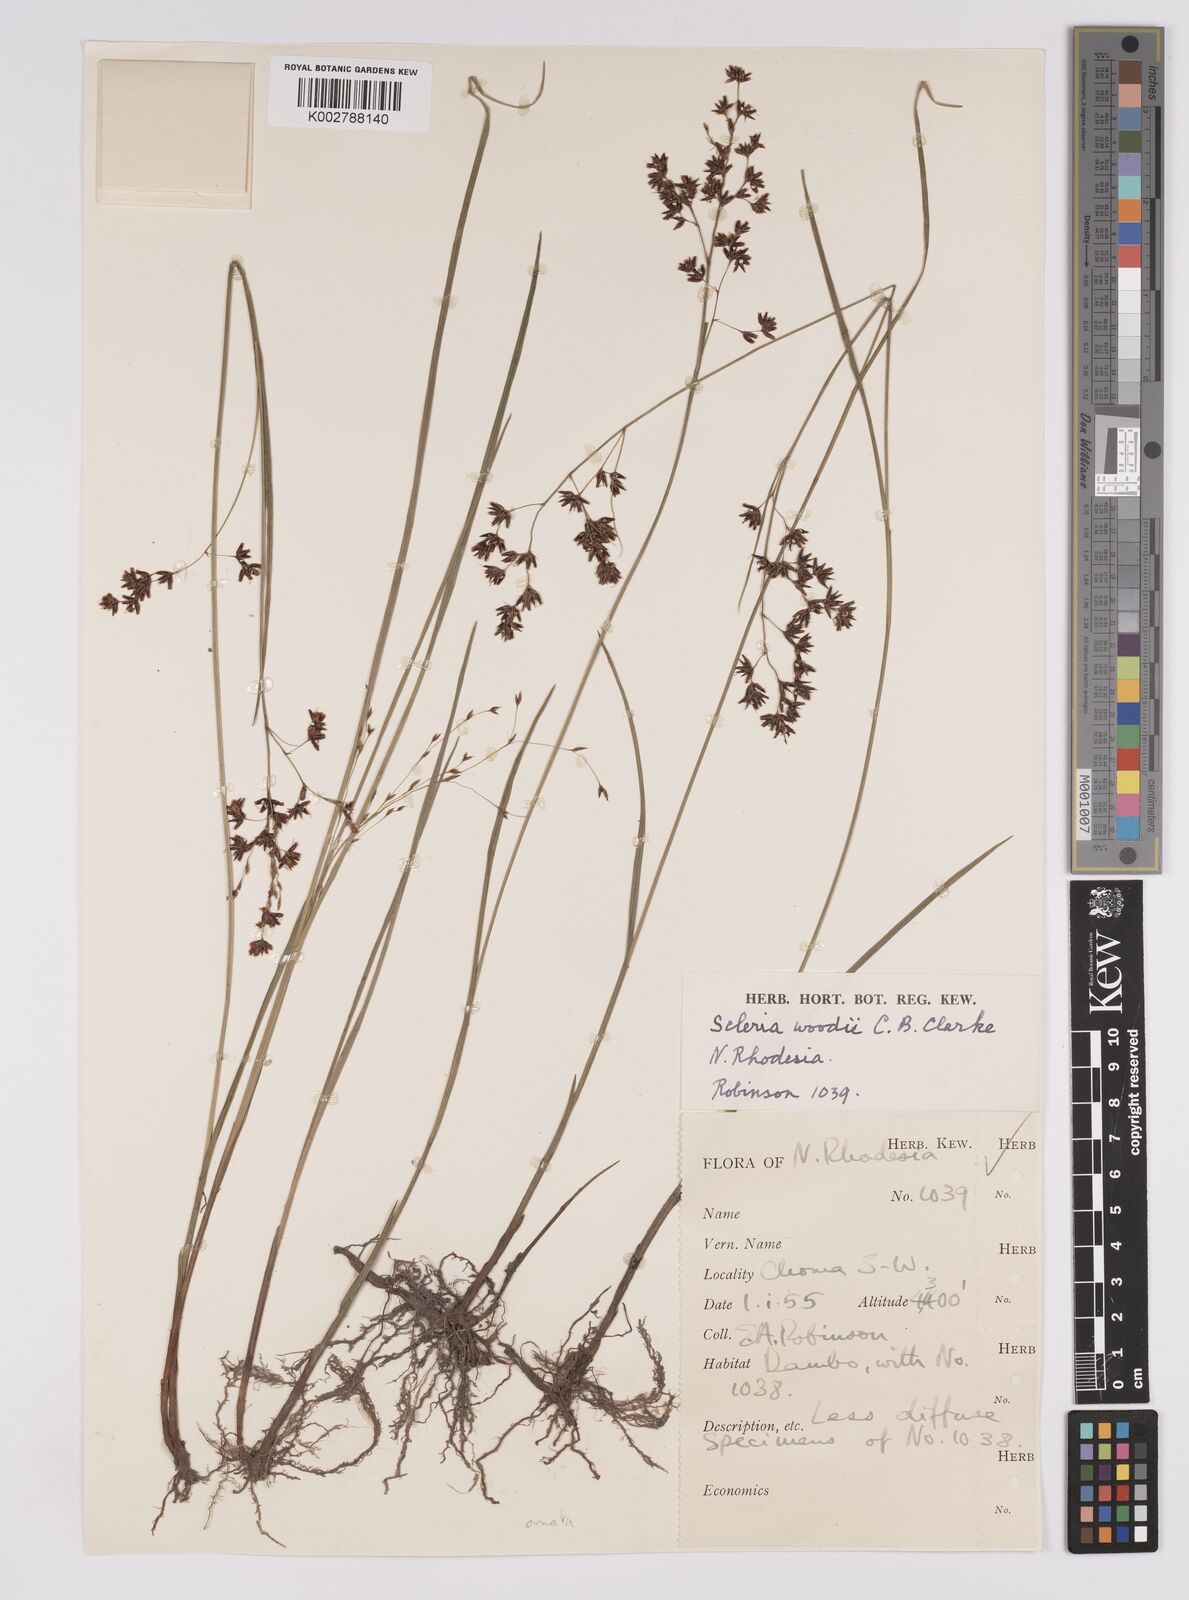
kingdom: Plantae
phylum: Tracheophyta
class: Liliopsida
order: Poales
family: Cyperaceae
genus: Scleria
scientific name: Scleria woodii
